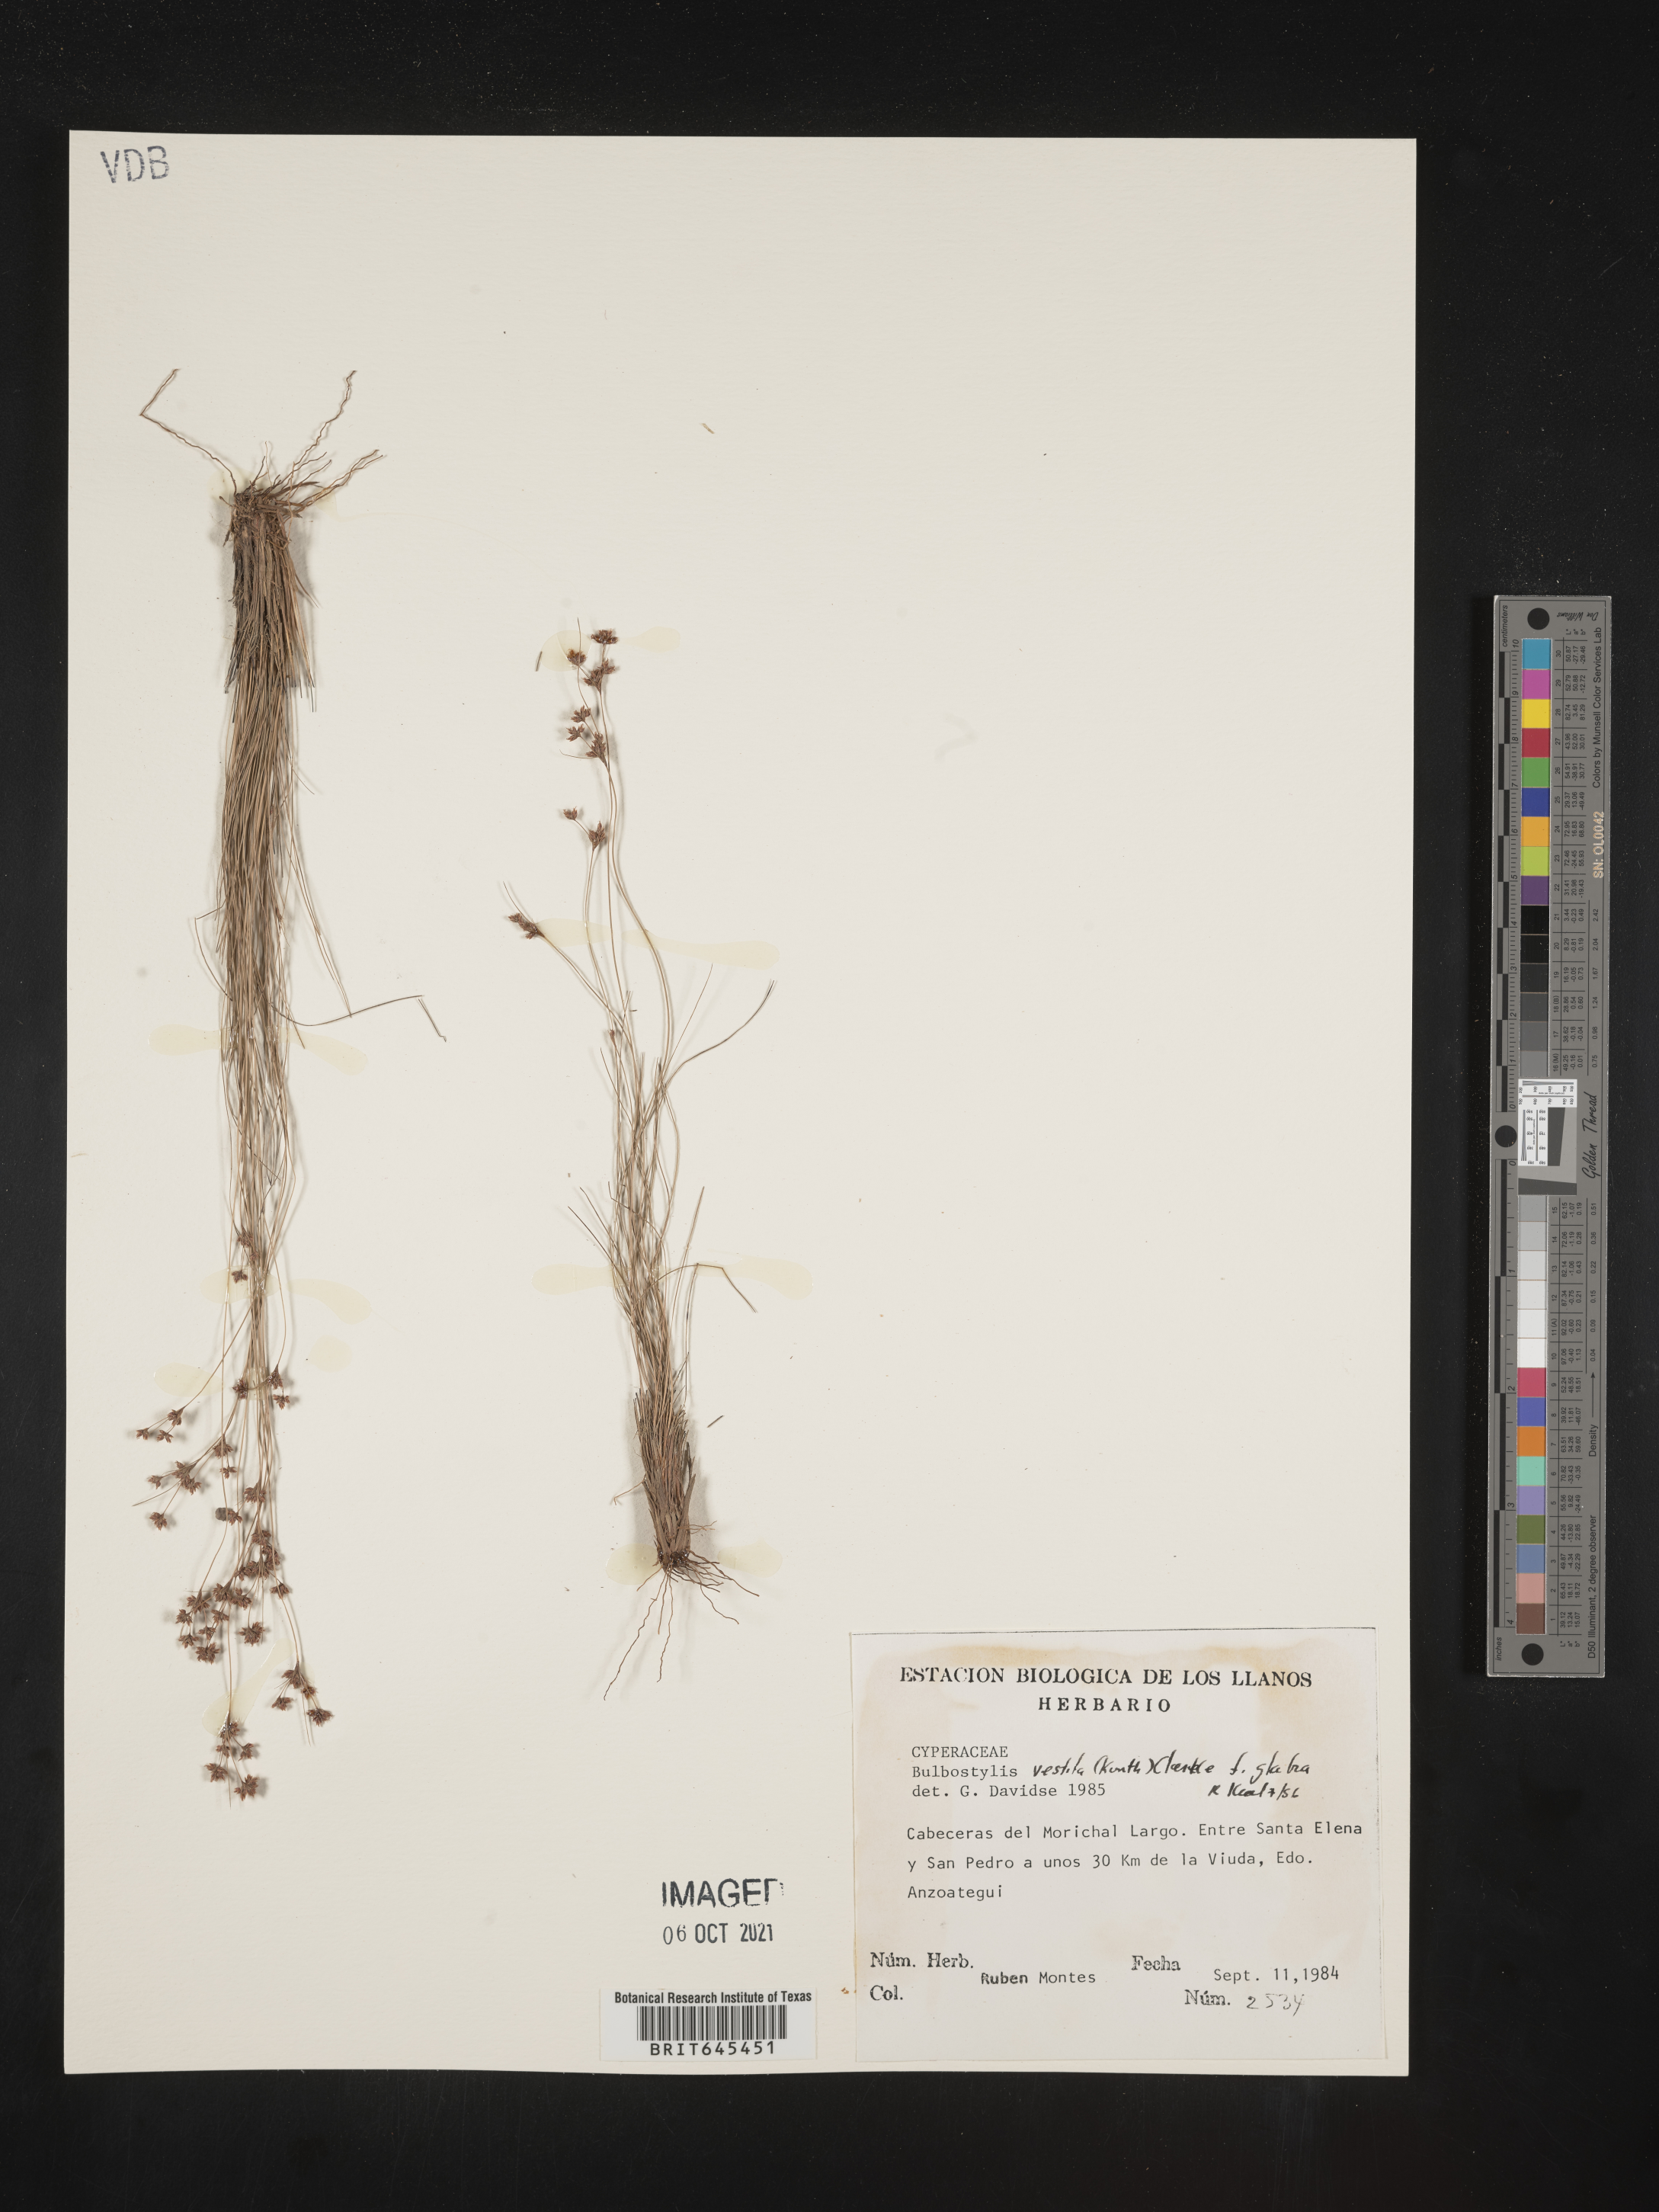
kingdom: Plantae
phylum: Tracheophyta
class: Liliopsida
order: Poales
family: Cyperaceae
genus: Bulbostylis
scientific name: Bulbostylis vestita
